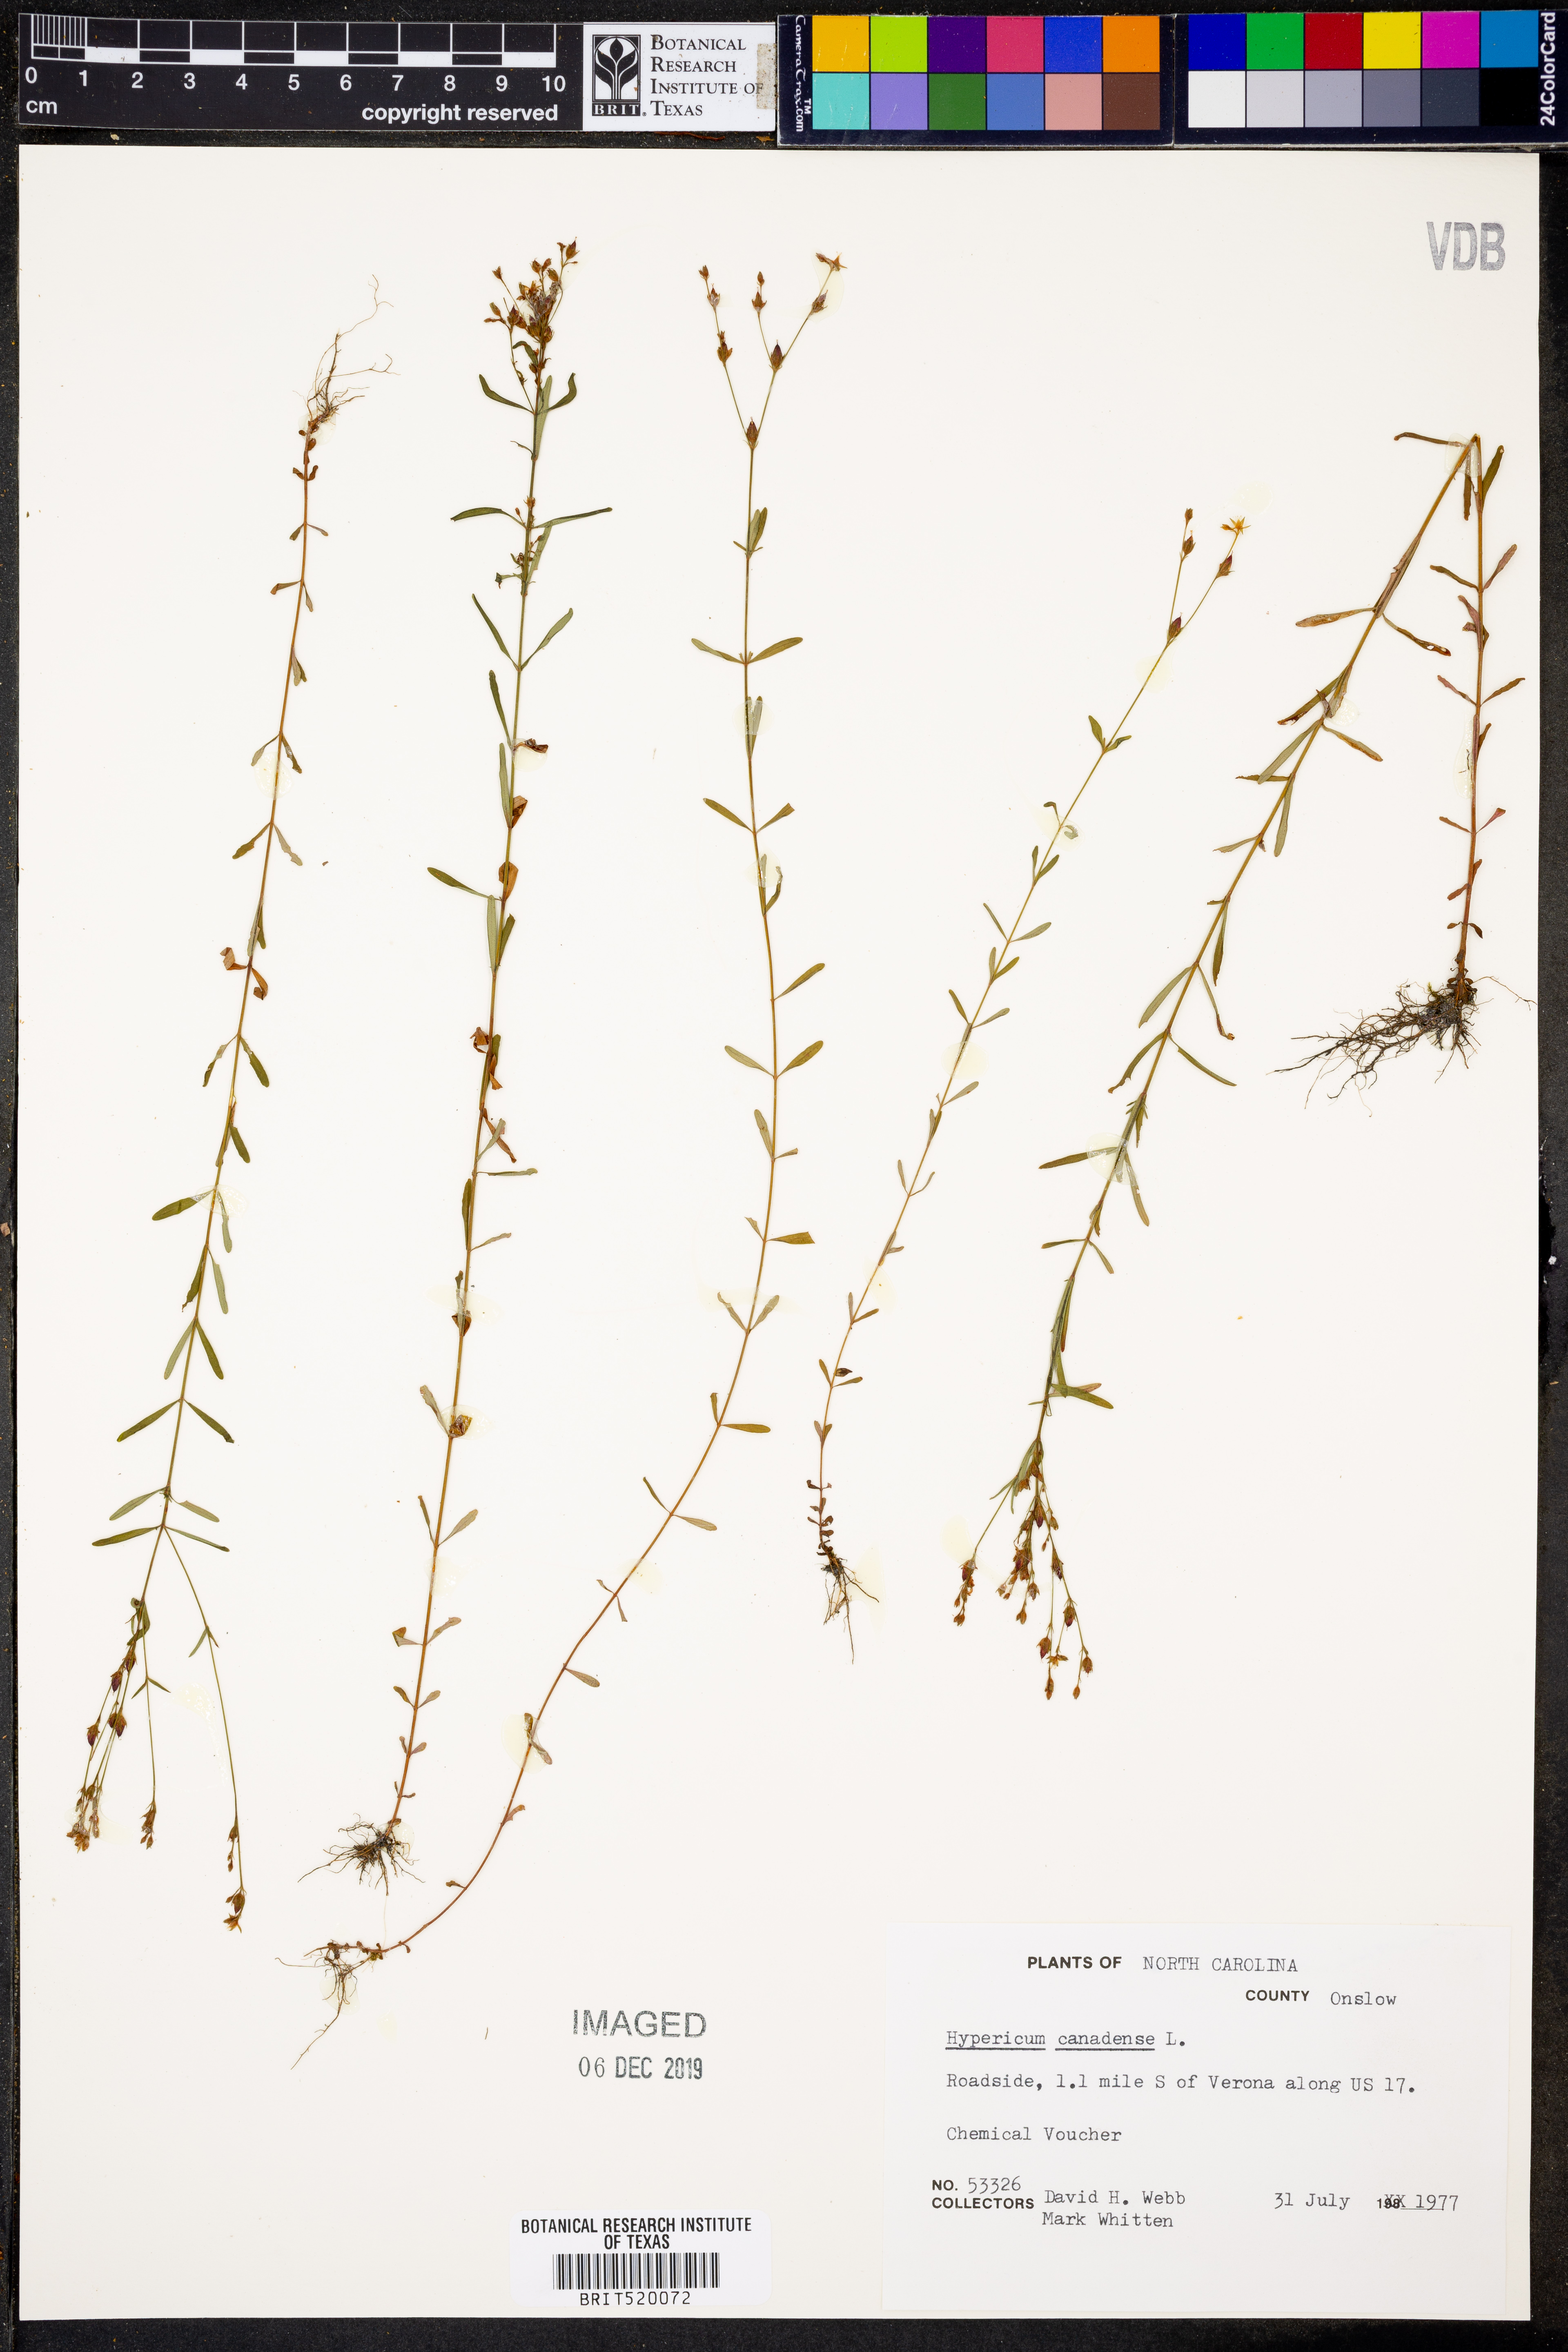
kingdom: Plantae
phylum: Tracheophyta
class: Magnoliopsida
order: Malpighiales
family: Hypericaceae
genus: Hypericum
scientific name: Hypericum canadense
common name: Irish st. john's-wort
